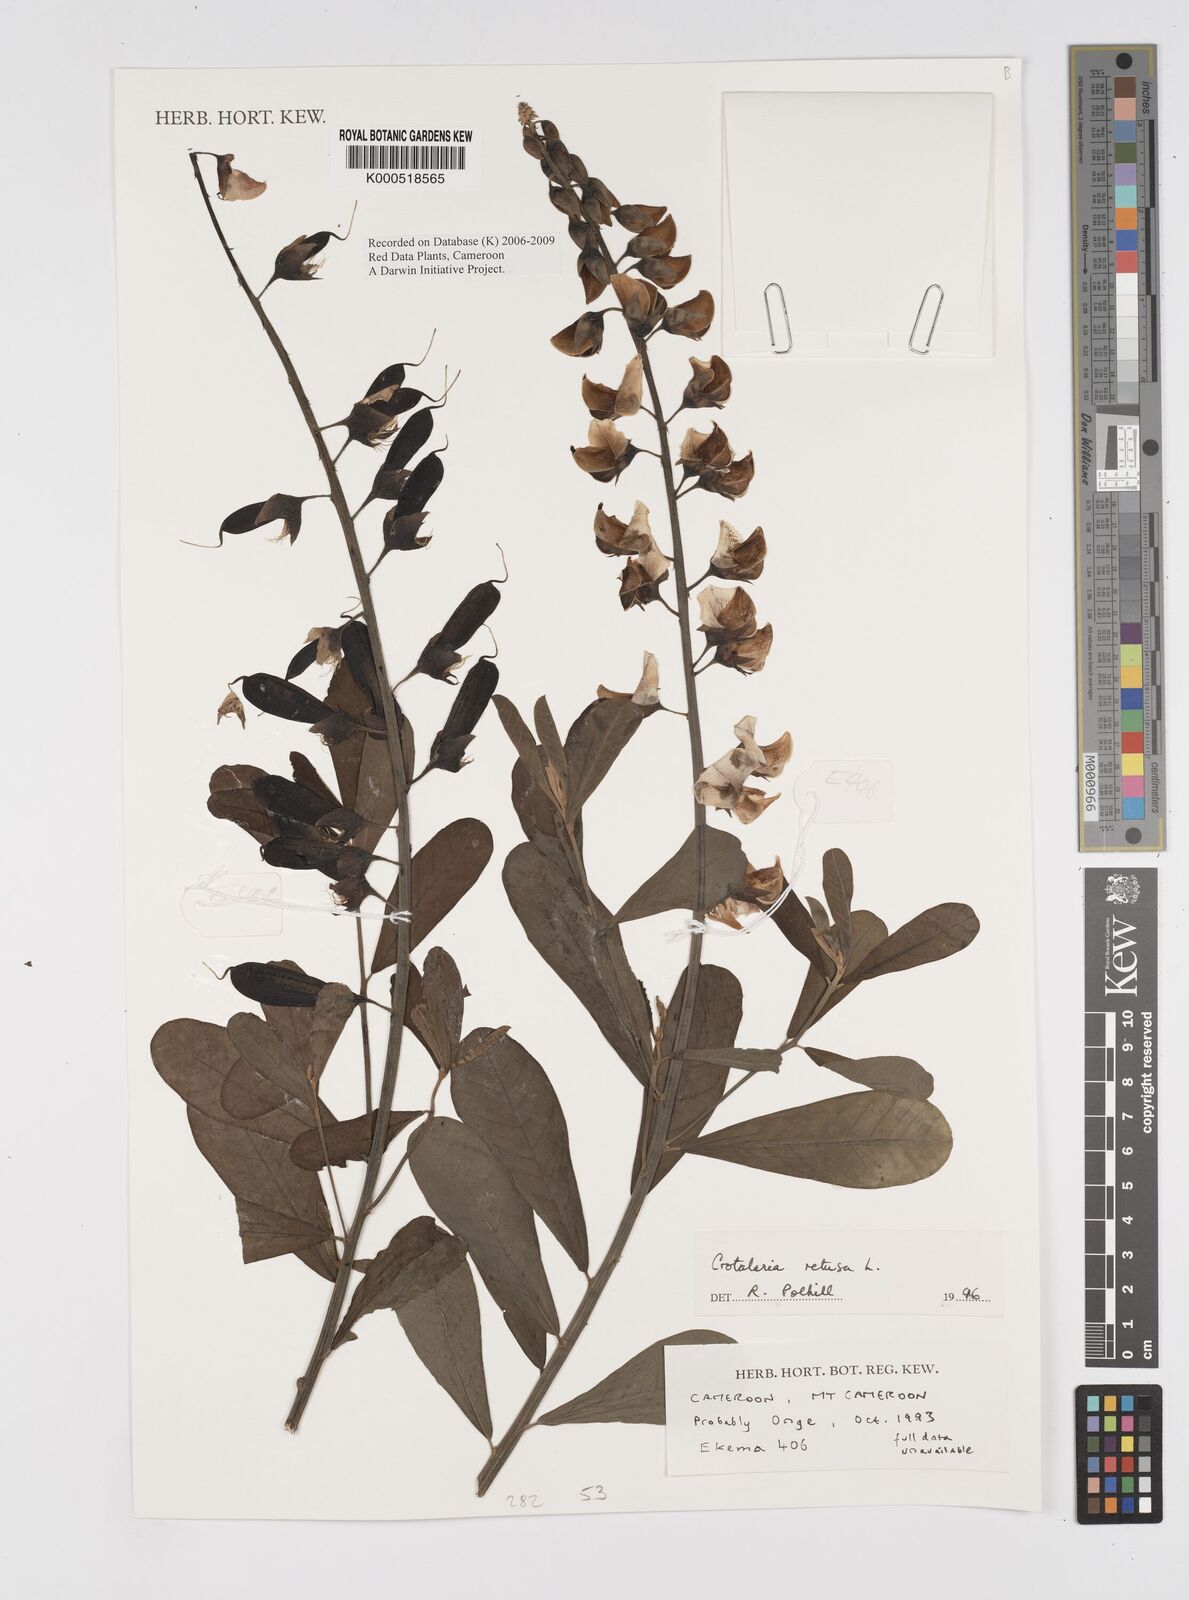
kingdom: Plantae
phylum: Tracheophyta
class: Magnoliopsida
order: Fabales
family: Fabaceae
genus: Crotalaria
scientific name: Crotalaria retusa
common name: Rattleweed
